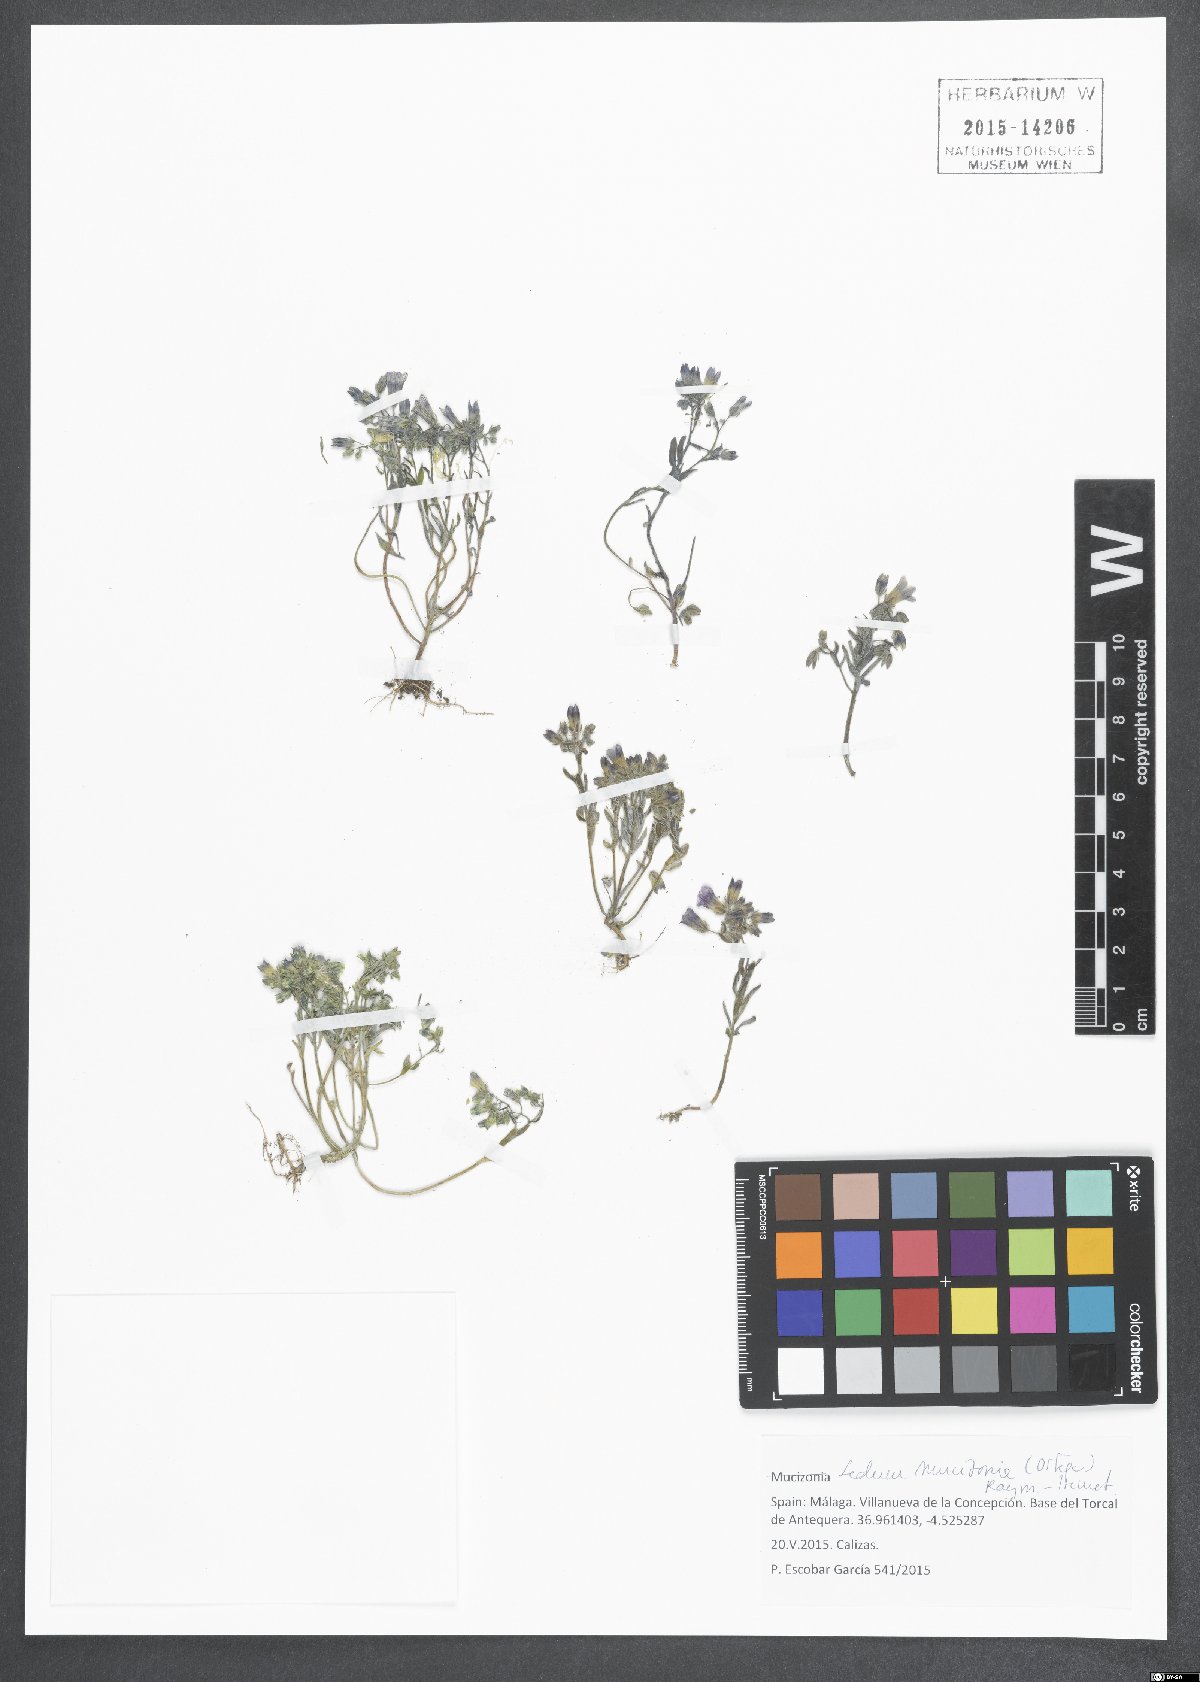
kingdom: Plantae
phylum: Tracheophyta
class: Magnoliopsida
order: Saxifragales
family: Crassulaceae
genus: Sedum
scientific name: Sedum mucizonia
